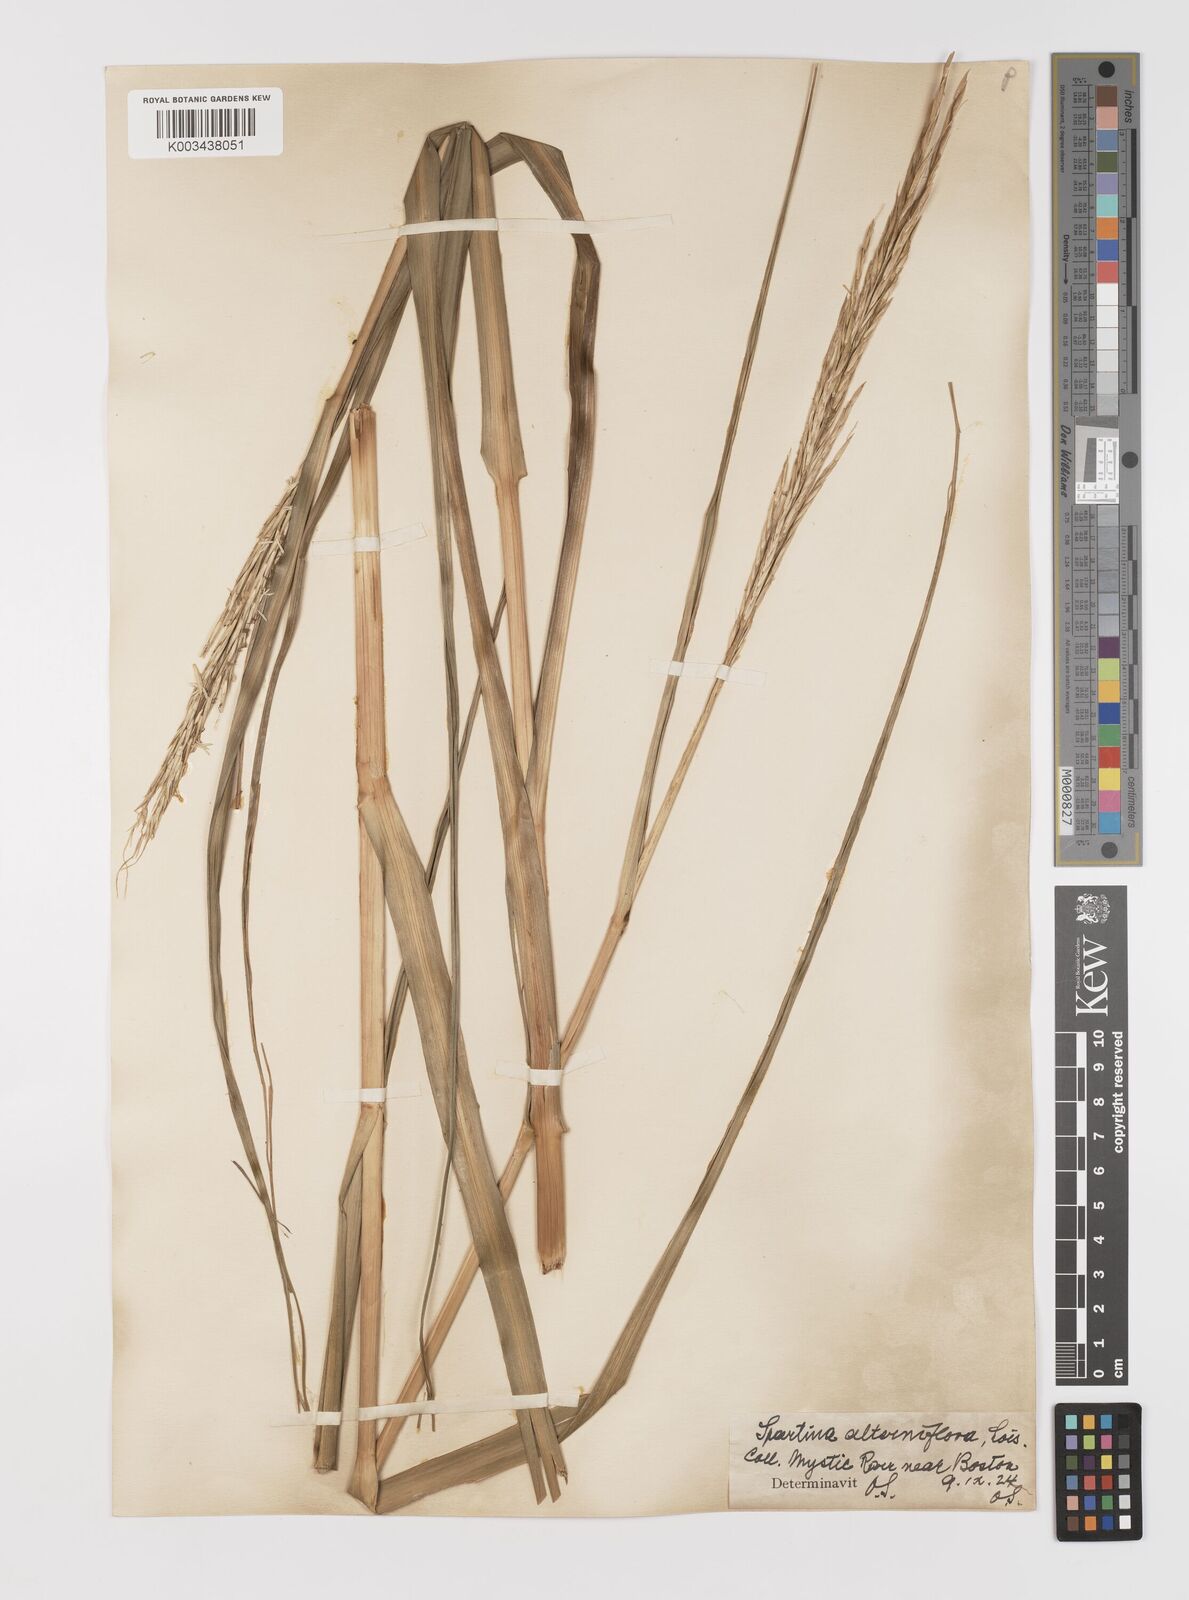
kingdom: Plantae
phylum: Tracheophyta
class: Liliopsida
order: Poales
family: Poaceae
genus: Sporobolus
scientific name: Sporobolus coarctatus
